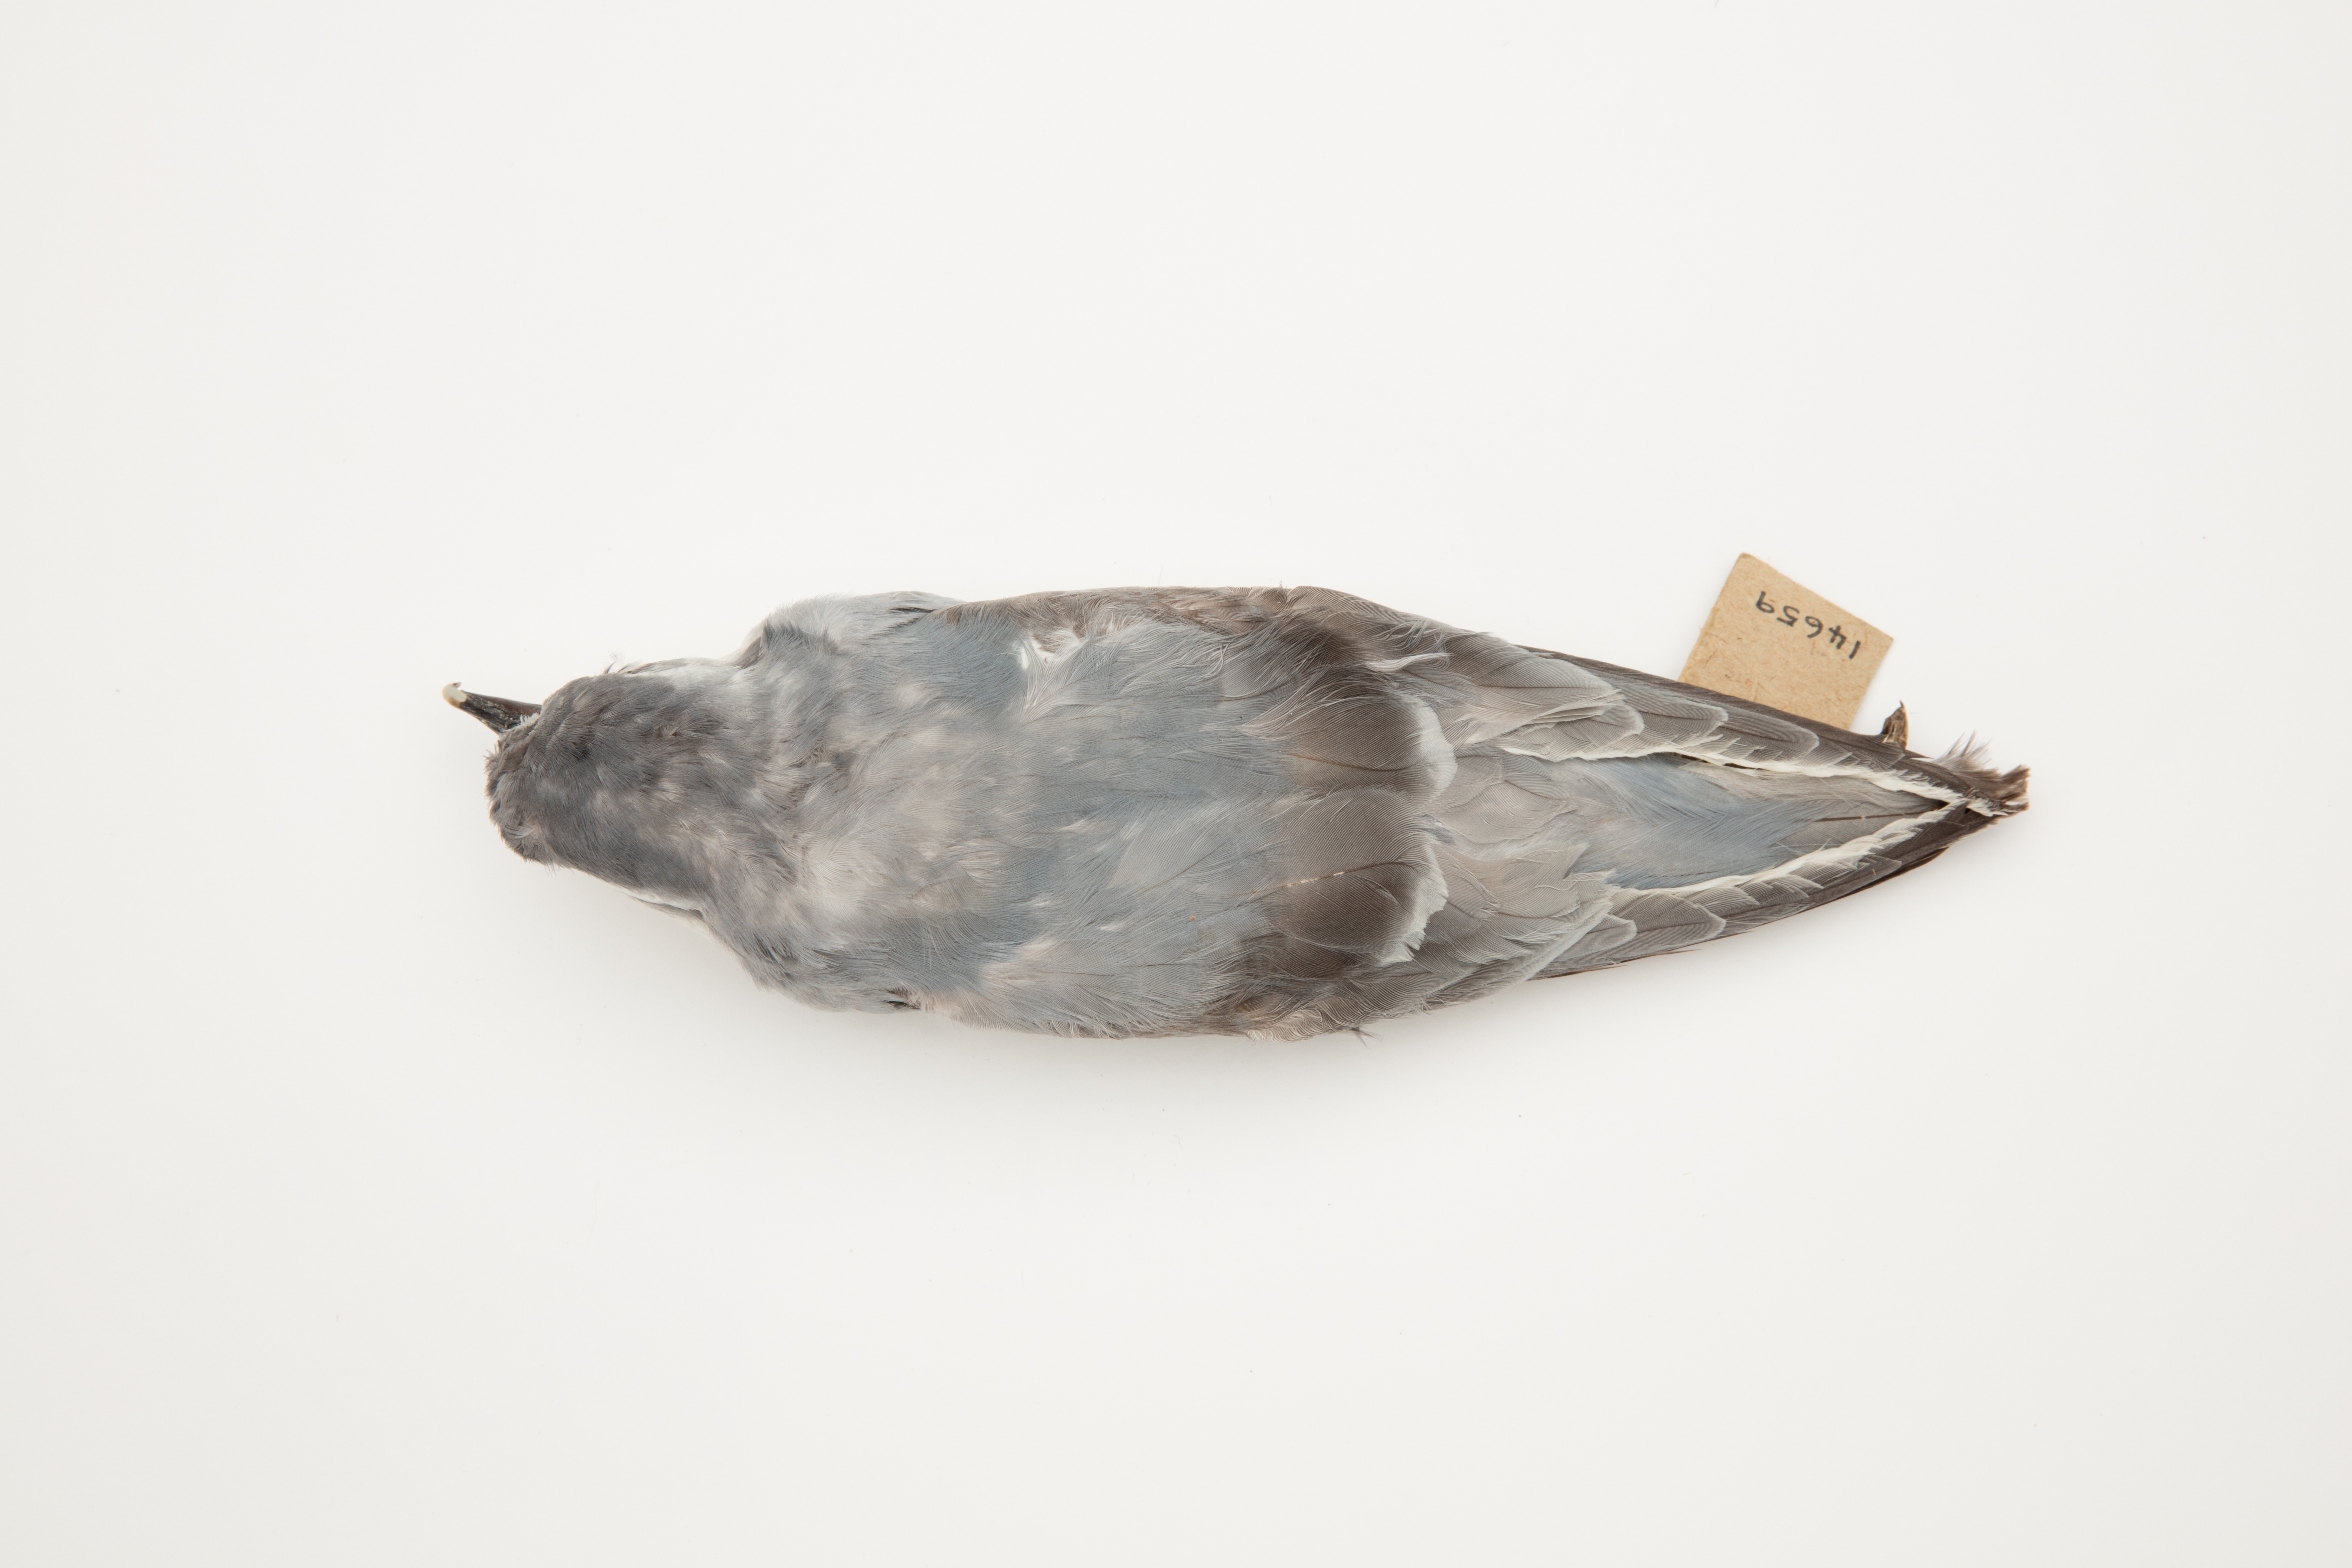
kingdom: Animalia
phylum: Chordata
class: Aves
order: Procellariiformes
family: Procellariidae
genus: Pachyptila
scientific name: Pachyptila belcheri
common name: Slender-billed prion
